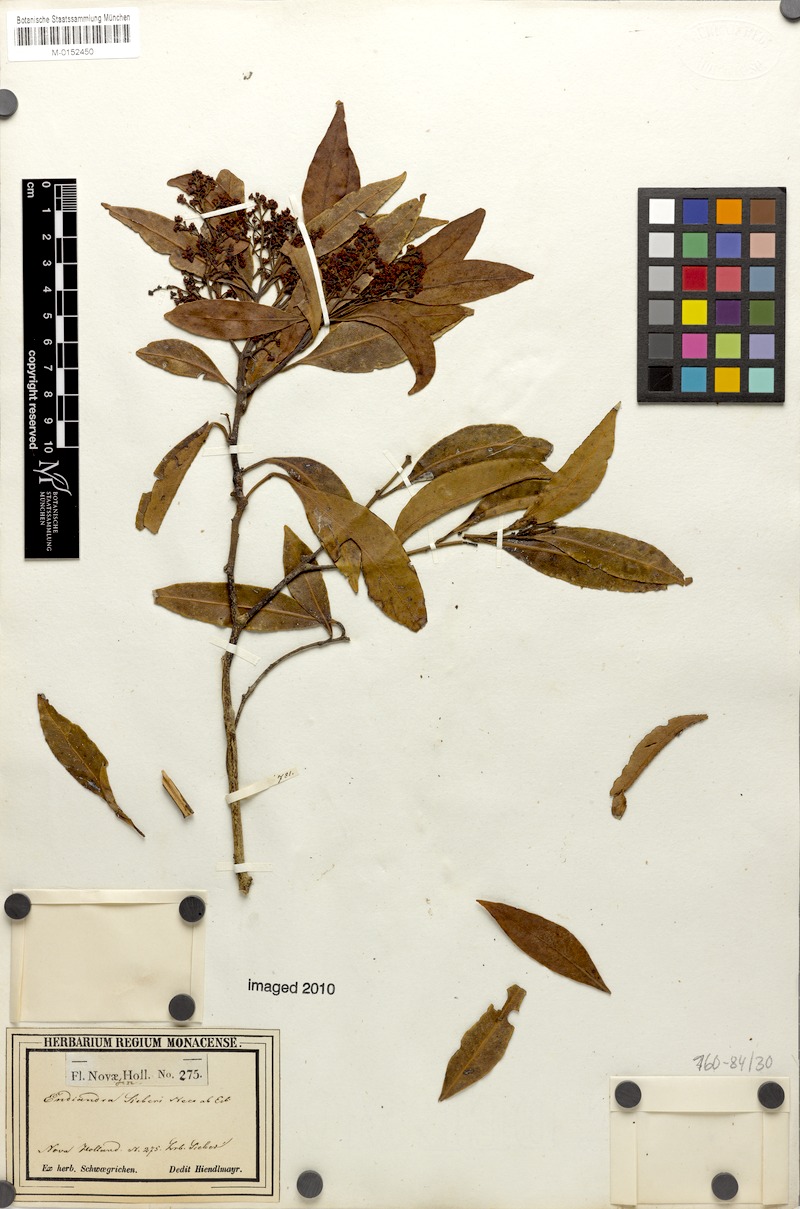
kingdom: Plantae
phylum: Tracheophyta
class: Magnoliopsida
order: Laurales
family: Lauraceae
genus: Endiandra
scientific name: Endiandra sieberi
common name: Corkwood
